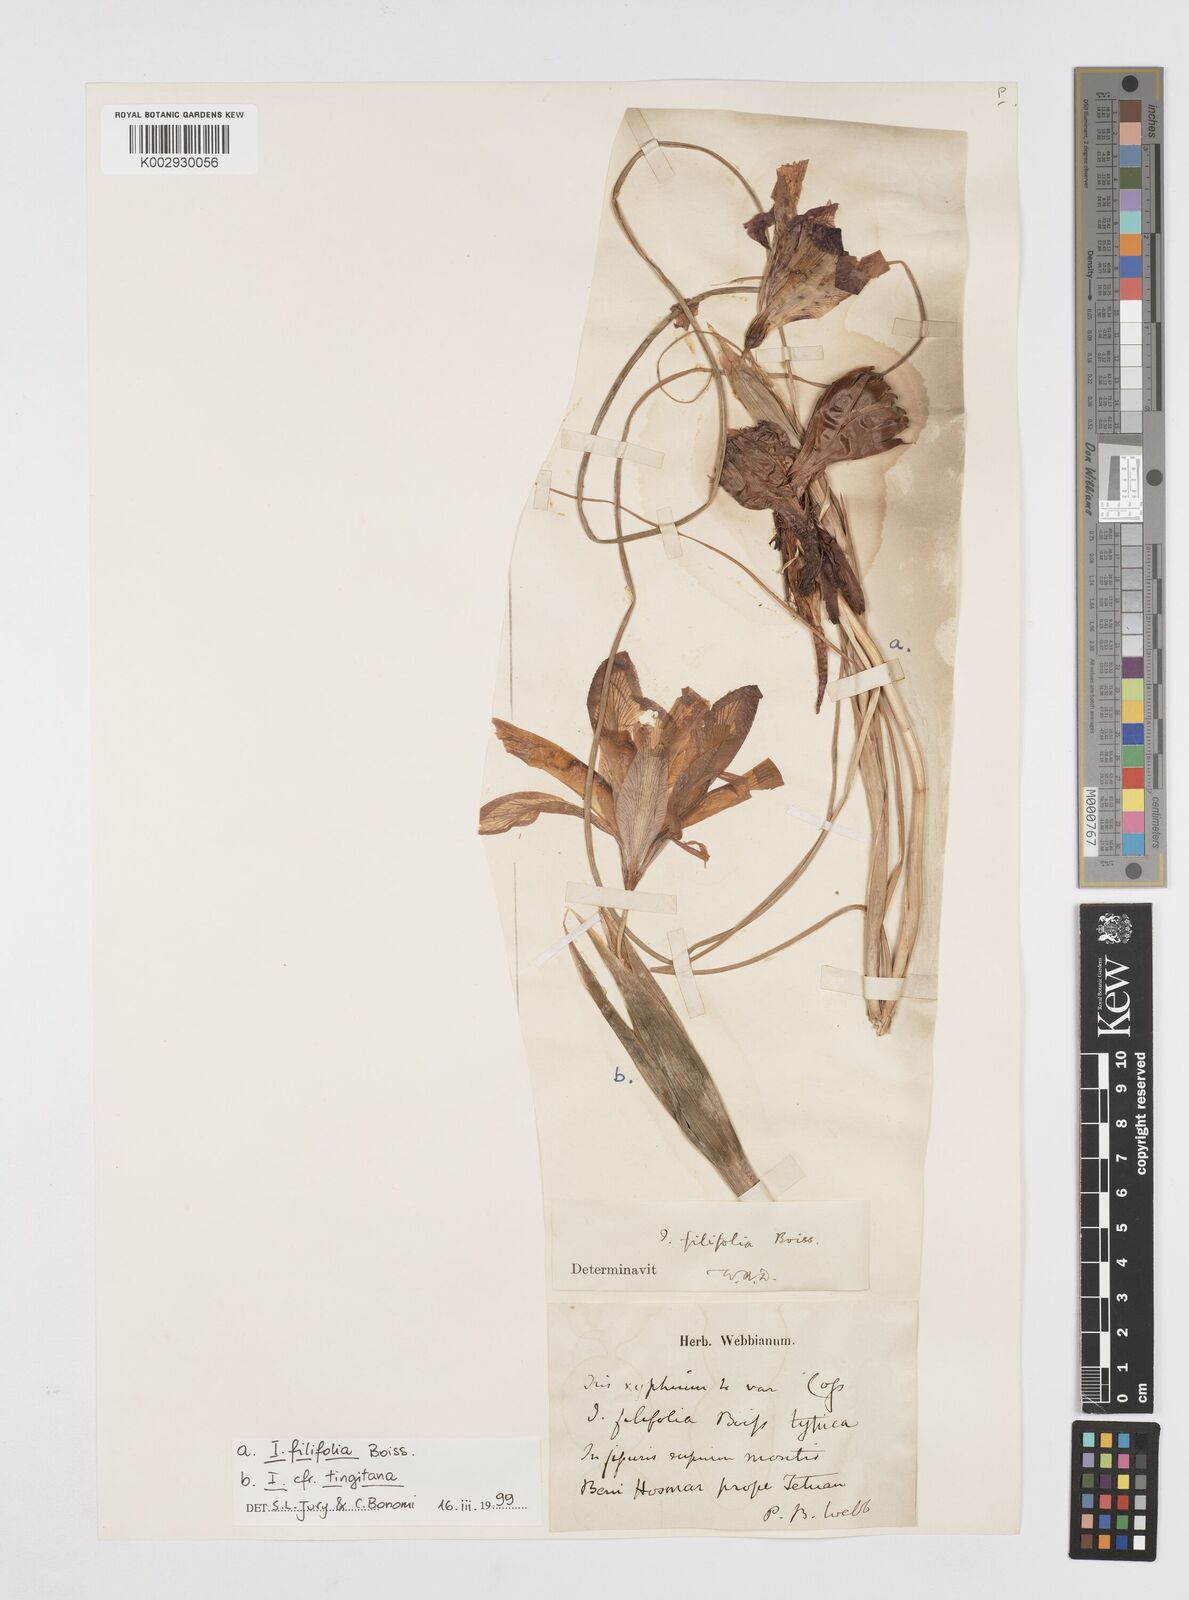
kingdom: Plantae
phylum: Tracheophyta
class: Liliopsida
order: Asparagales
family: Iridaceae
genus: Iris
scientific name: Iris filifolia
